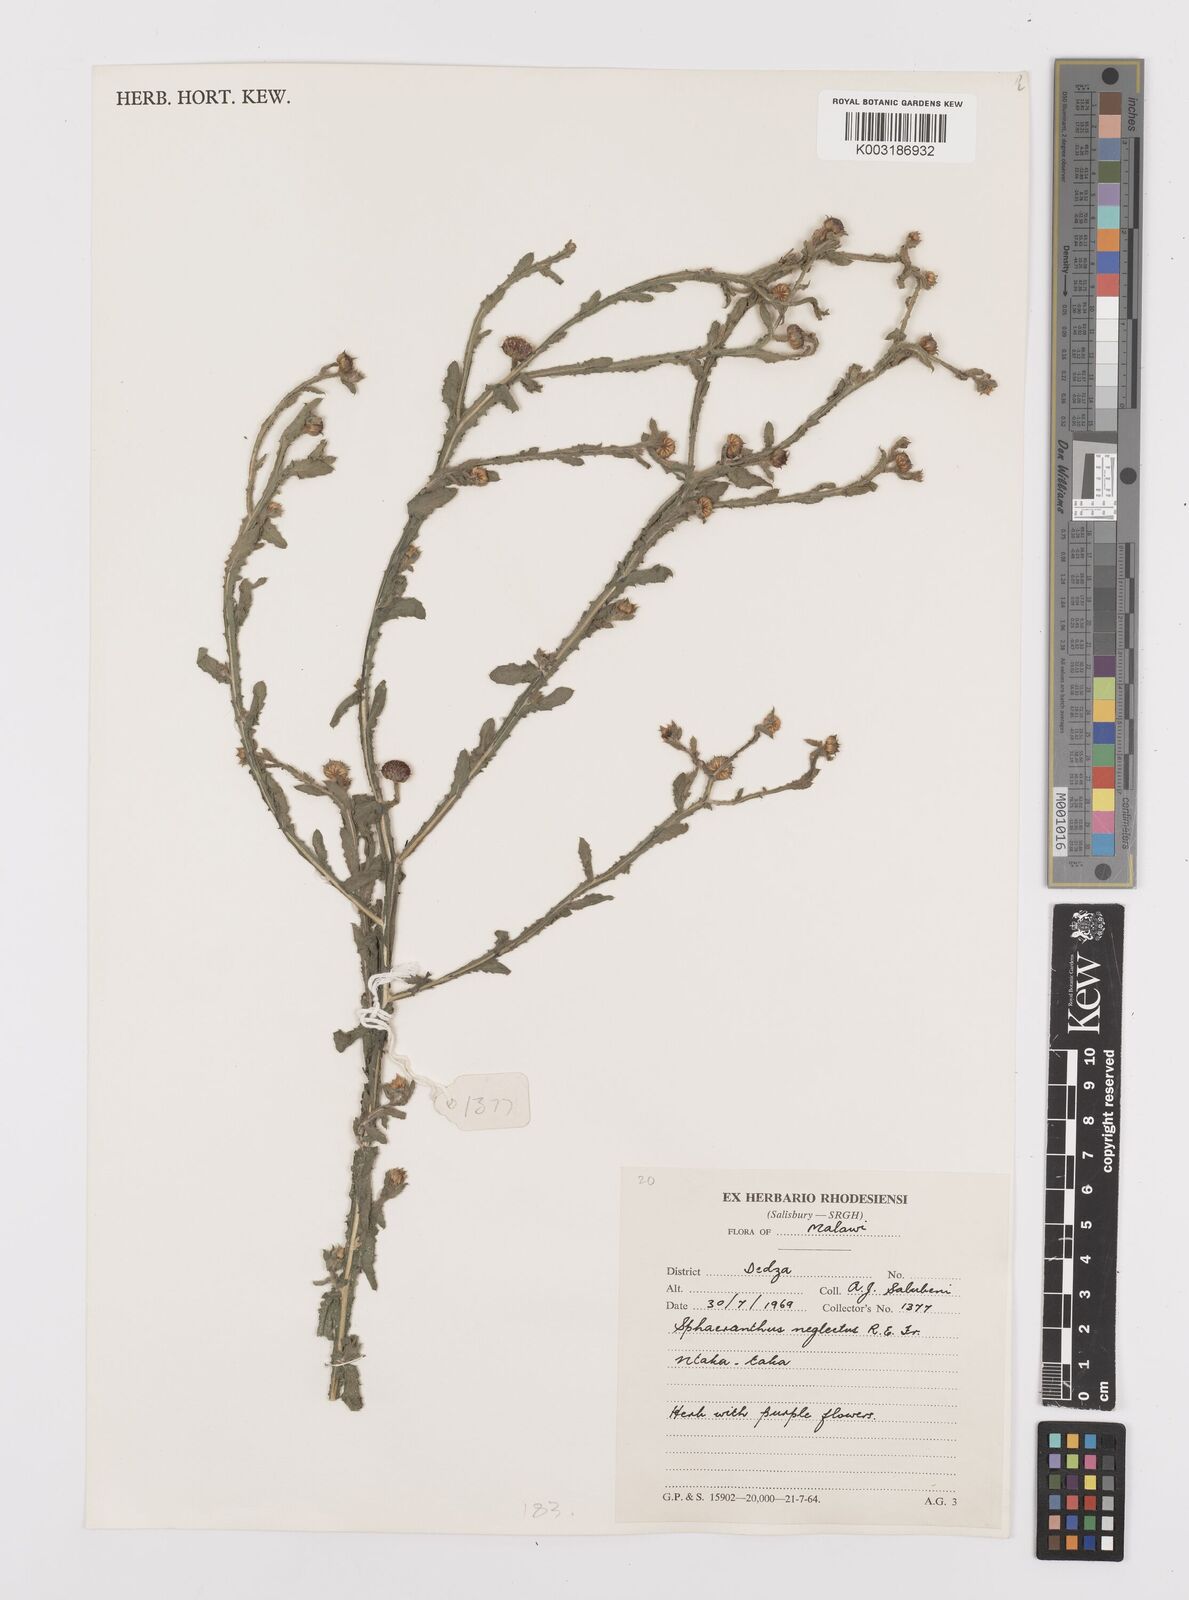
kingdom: Plantae
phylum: Tracheophyta
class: Magnoliopsida
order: Asterales
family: Asteraceae
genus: Sphaeranthus
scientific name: Sphaeranthus neglectus
